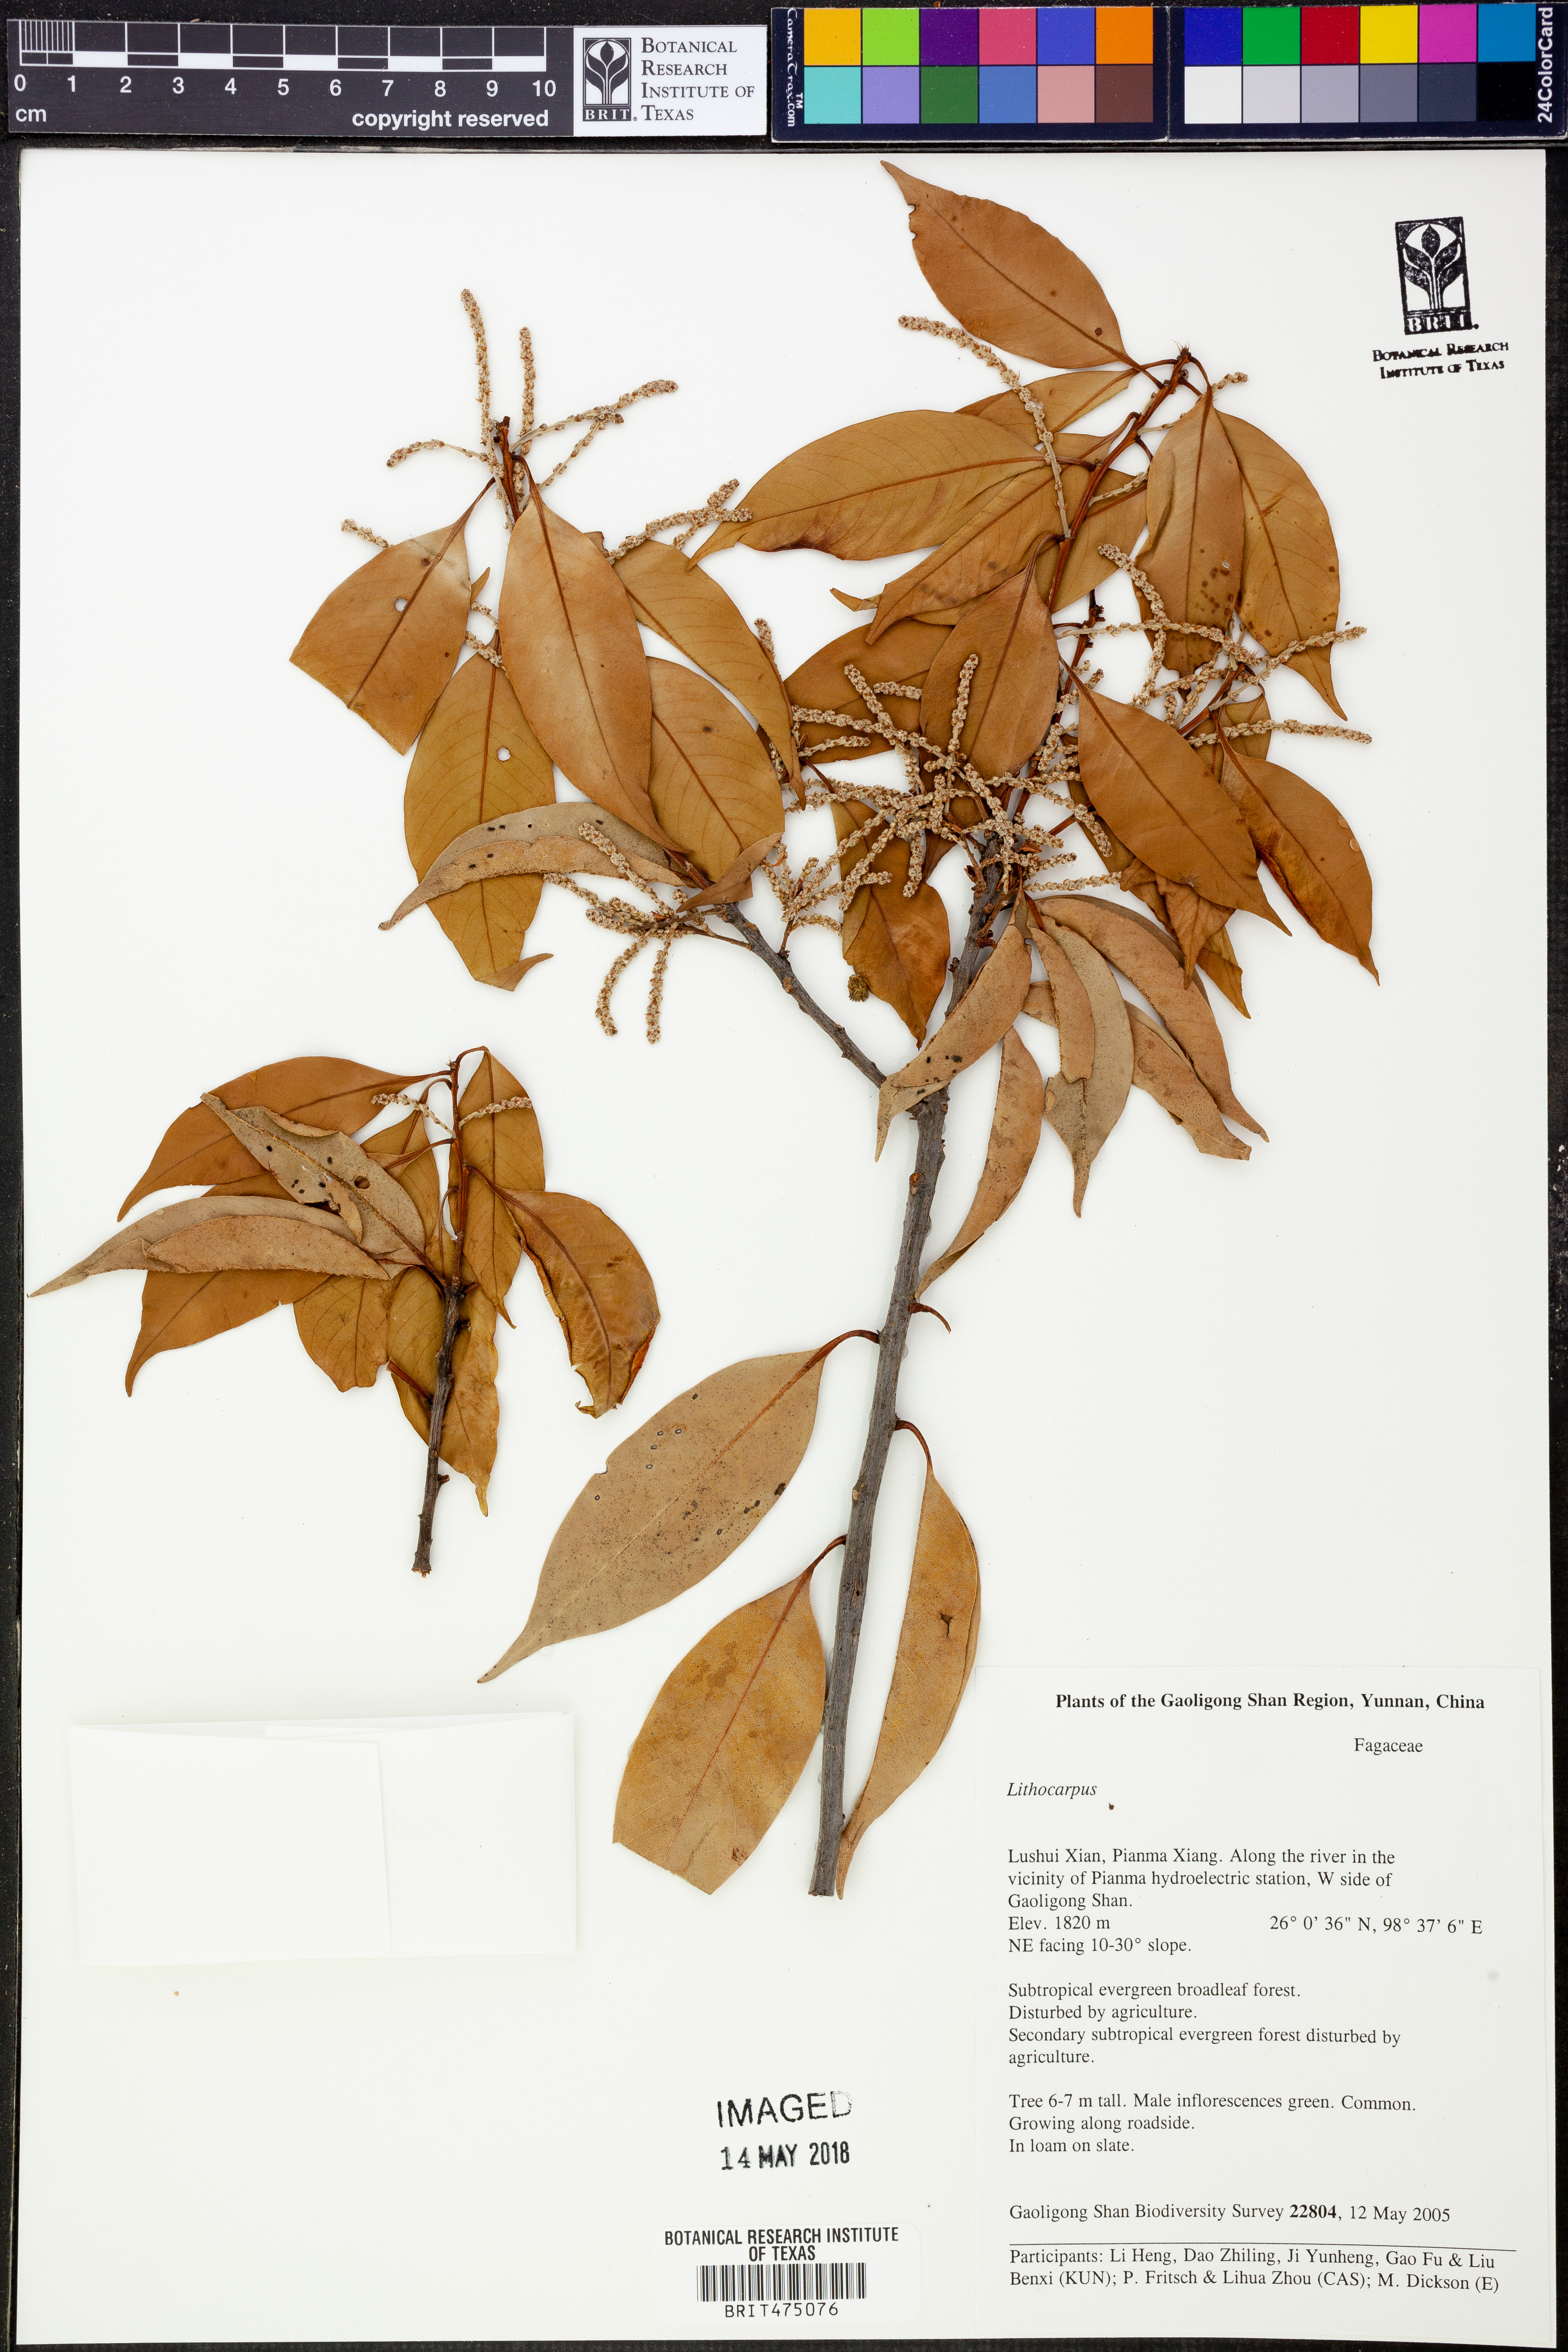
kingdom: Plantae
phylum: Tracheophyta
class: Magnoliopsida
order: Fagales
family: Fagaceae
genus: Lithocarpus
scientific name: Lithocarpus
